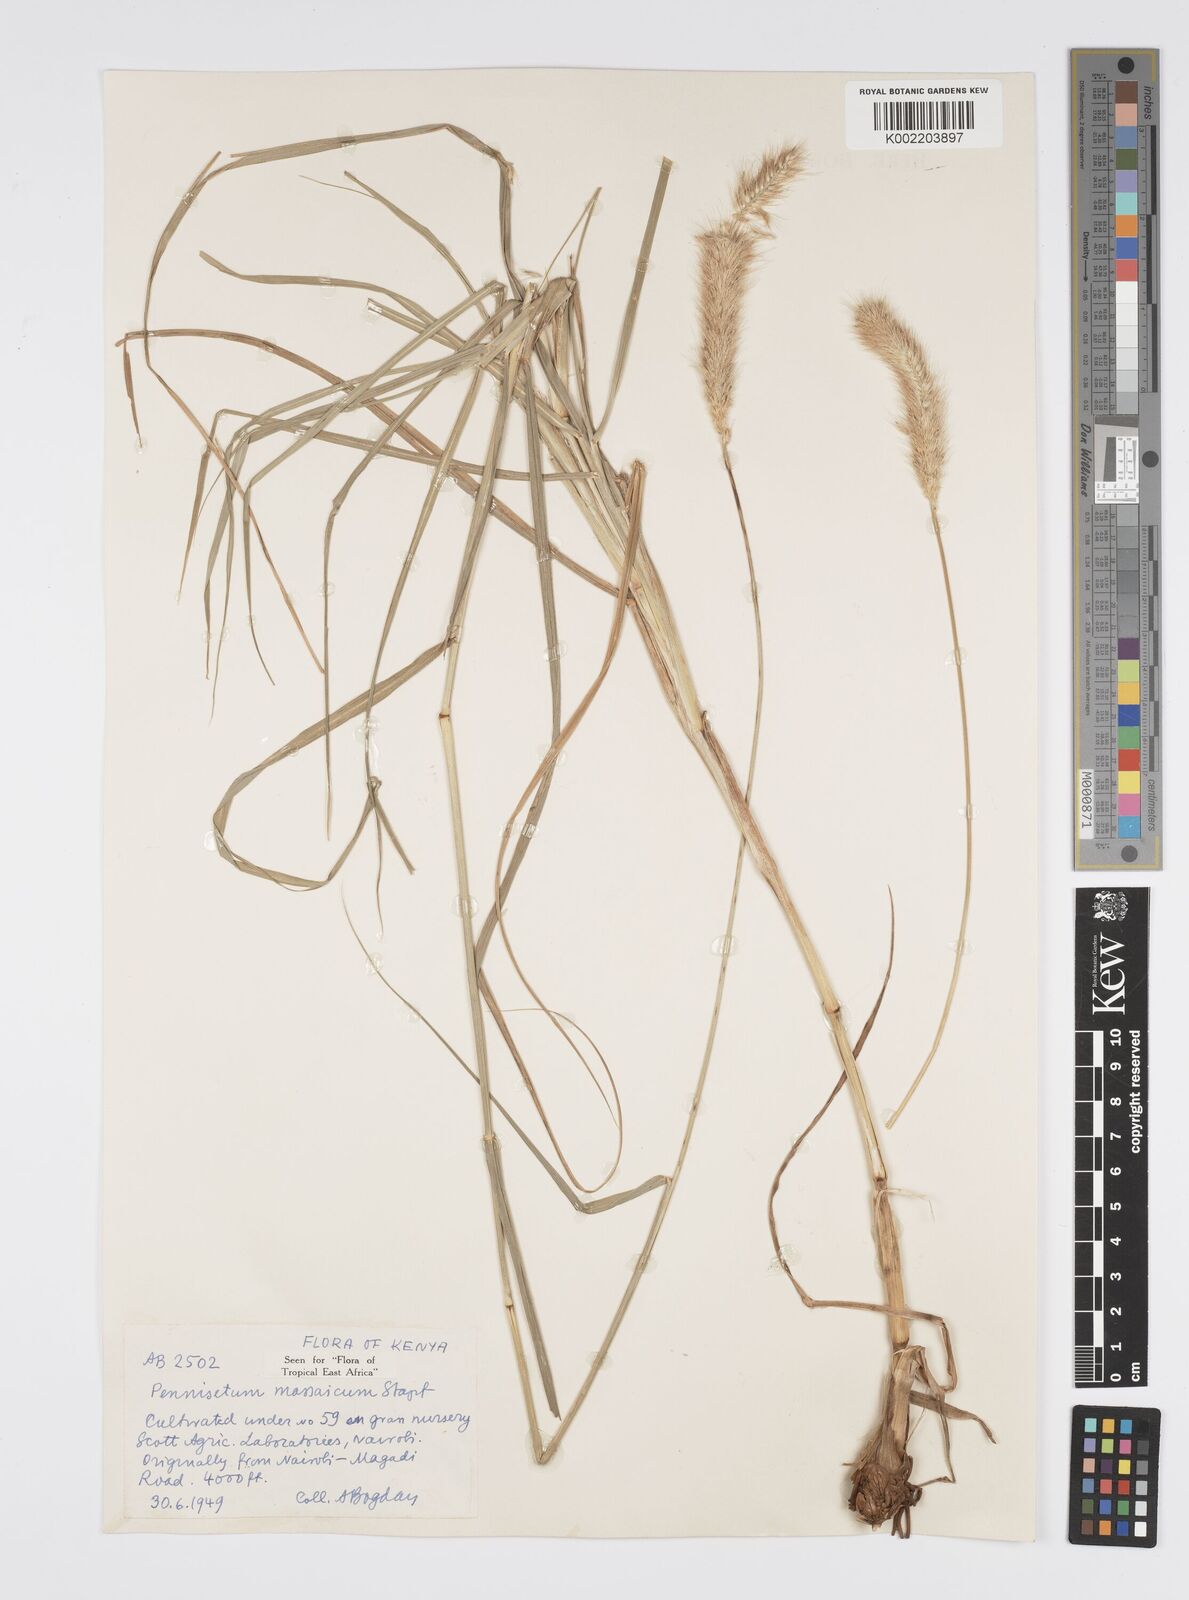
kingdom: Plantae
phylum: Tracheophyta
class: Liliopsida
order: Poales
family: Poaceae
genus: Cenchrus
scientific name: Cenchrus massaicus
